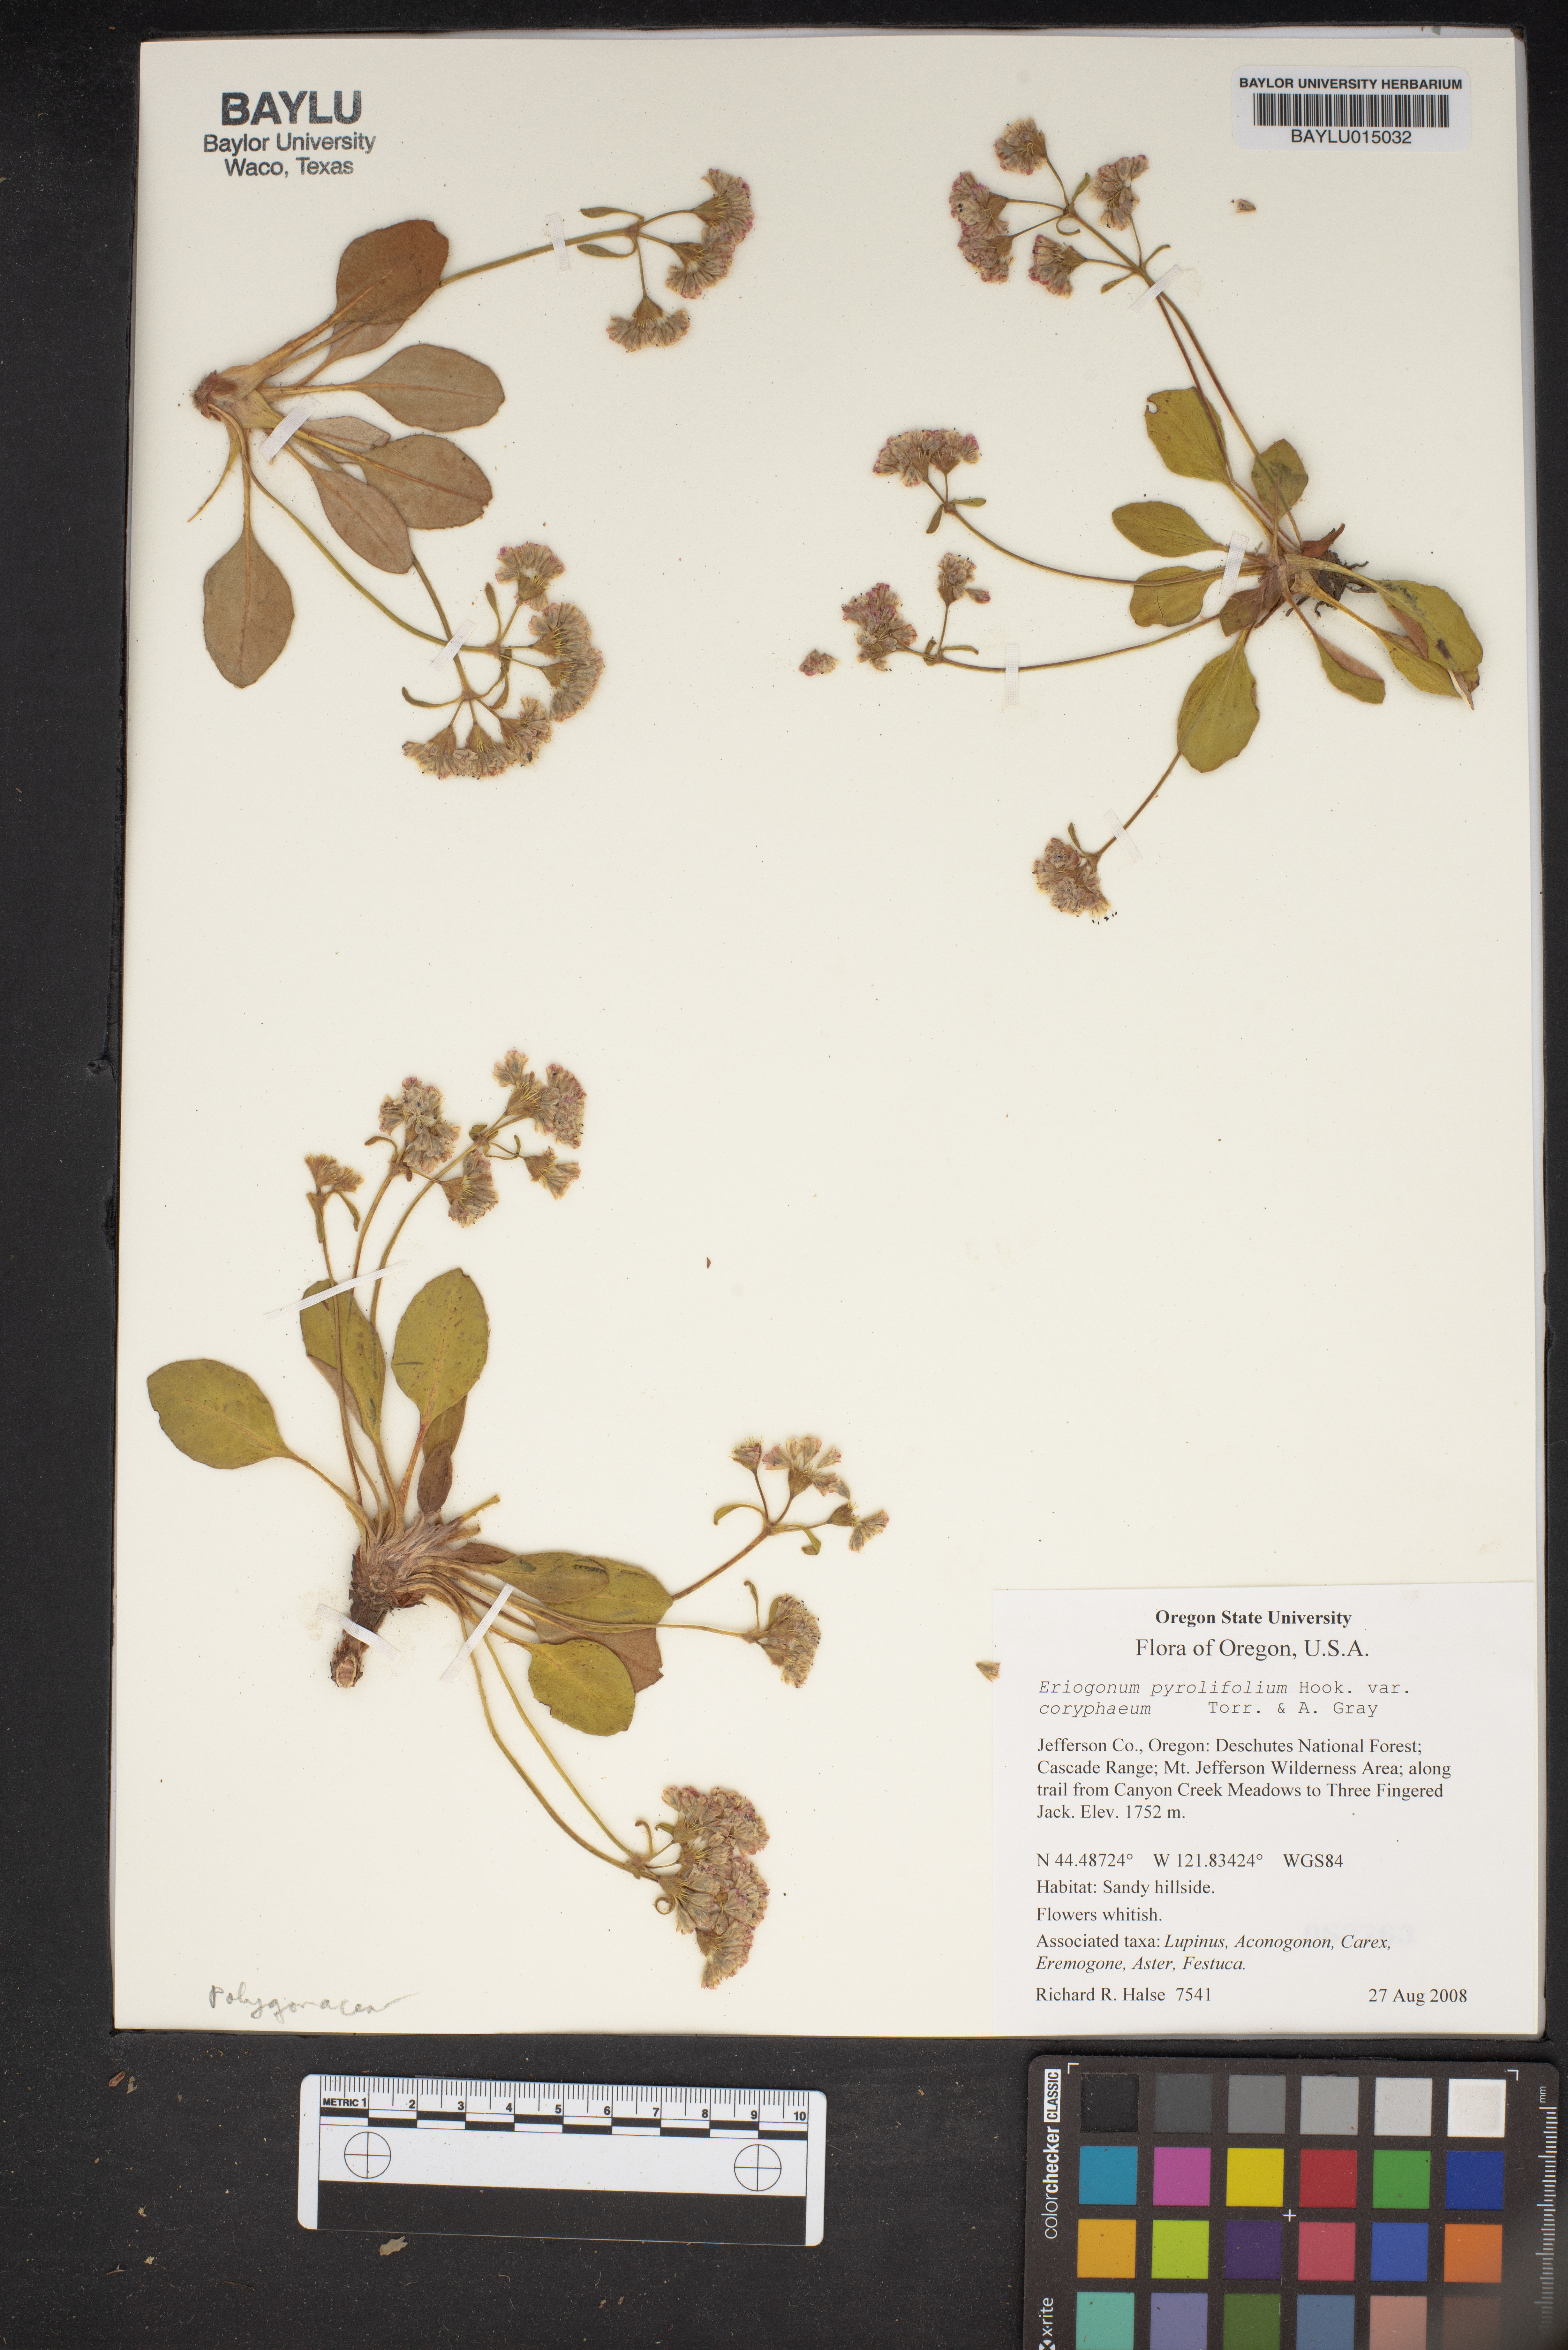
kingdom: Plantae
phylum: Tracheophyta
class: Magnoliopsida
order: Caryophyllales
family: Polygonaceae
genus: Eriogonum
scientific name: Eriogonum pyrolifolium
